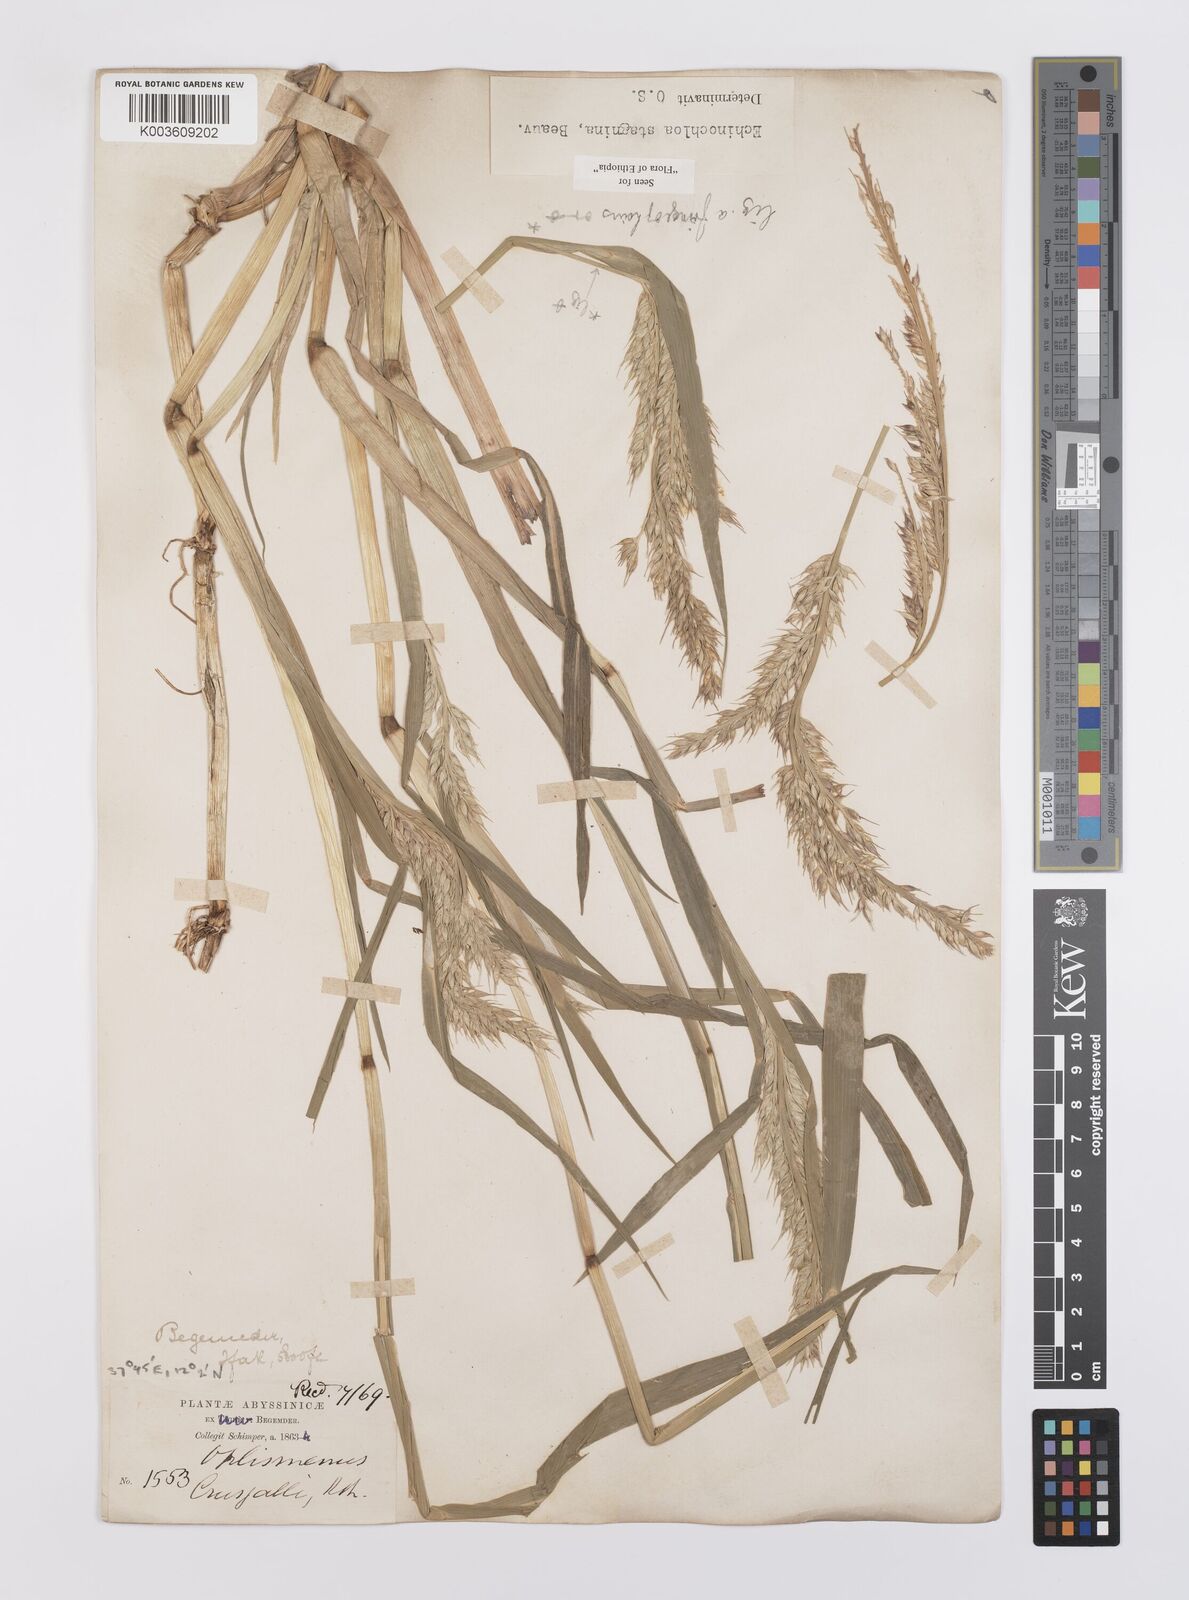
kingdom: Plantae
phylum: Tracheophyta
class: Liliopsida
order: Poales
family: Poaceae
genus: Echinochloa
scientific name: Echinochloa stagnina
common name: Burgu grass
